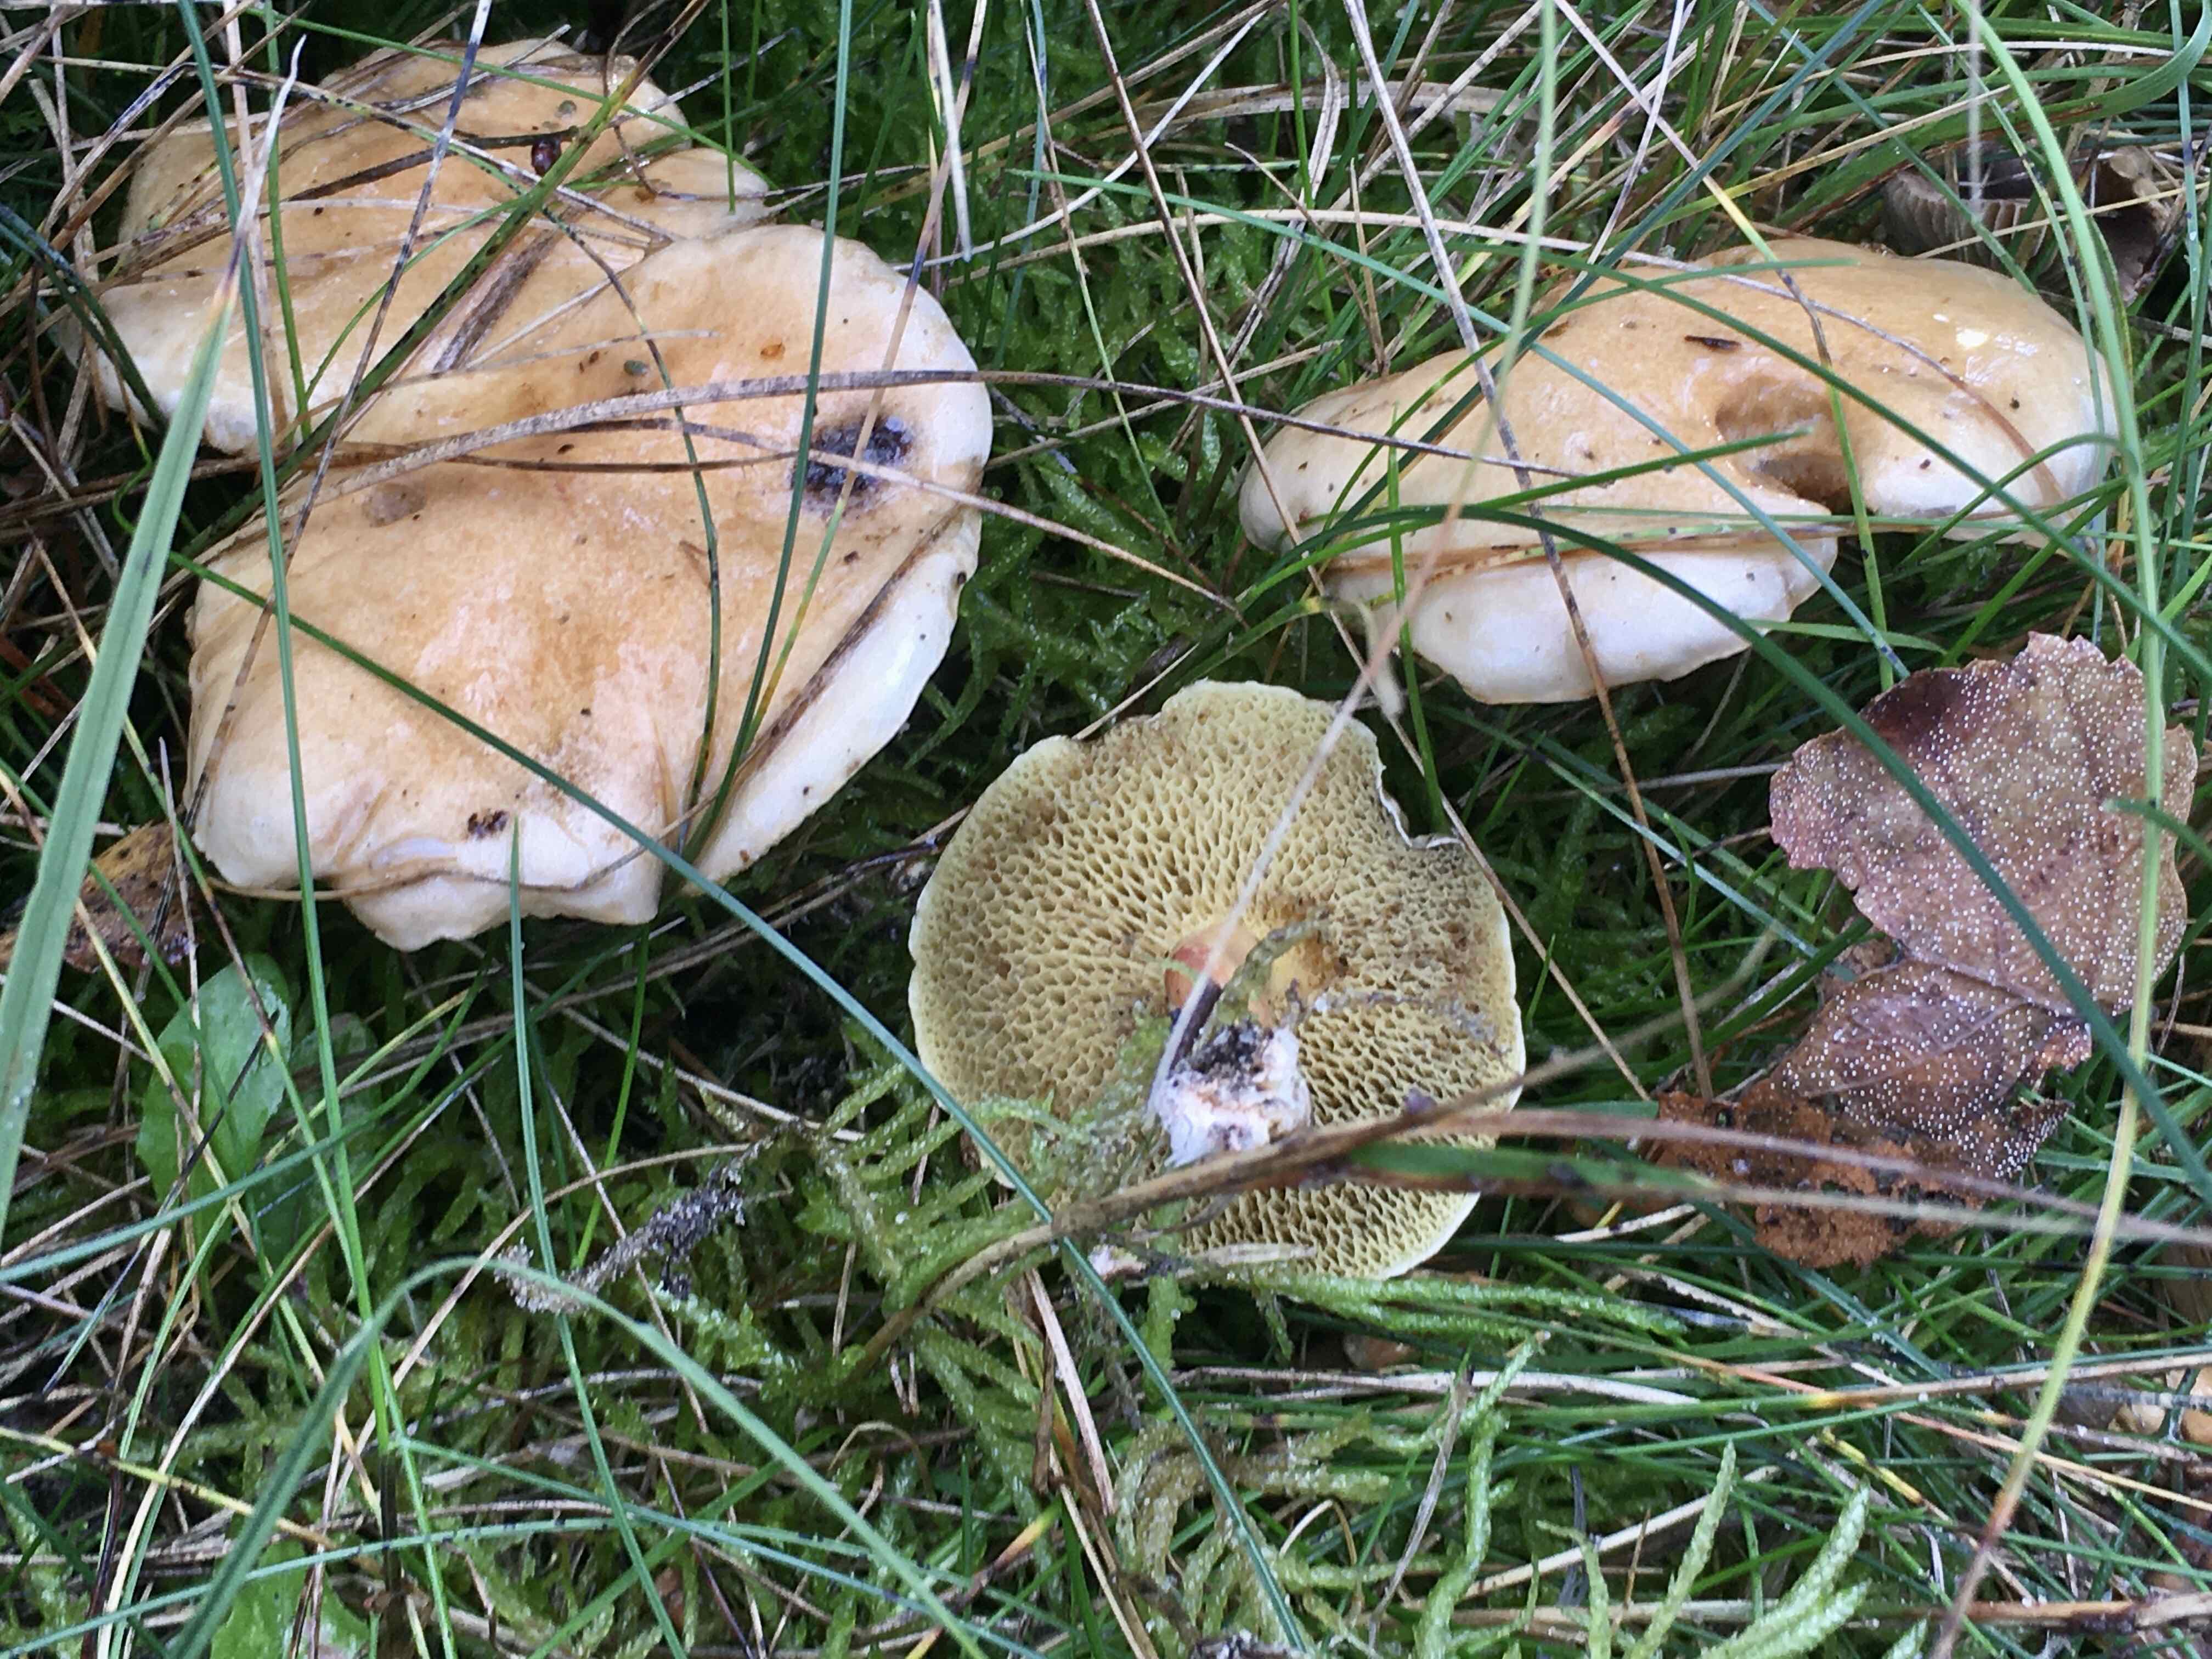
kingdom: Fungi
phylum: Basidiomycota
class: Agaricomycetes
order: Boletales
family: Suillaceae
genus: Suillus
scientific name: Suillus bovinus
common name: grovporet slimrørhat
